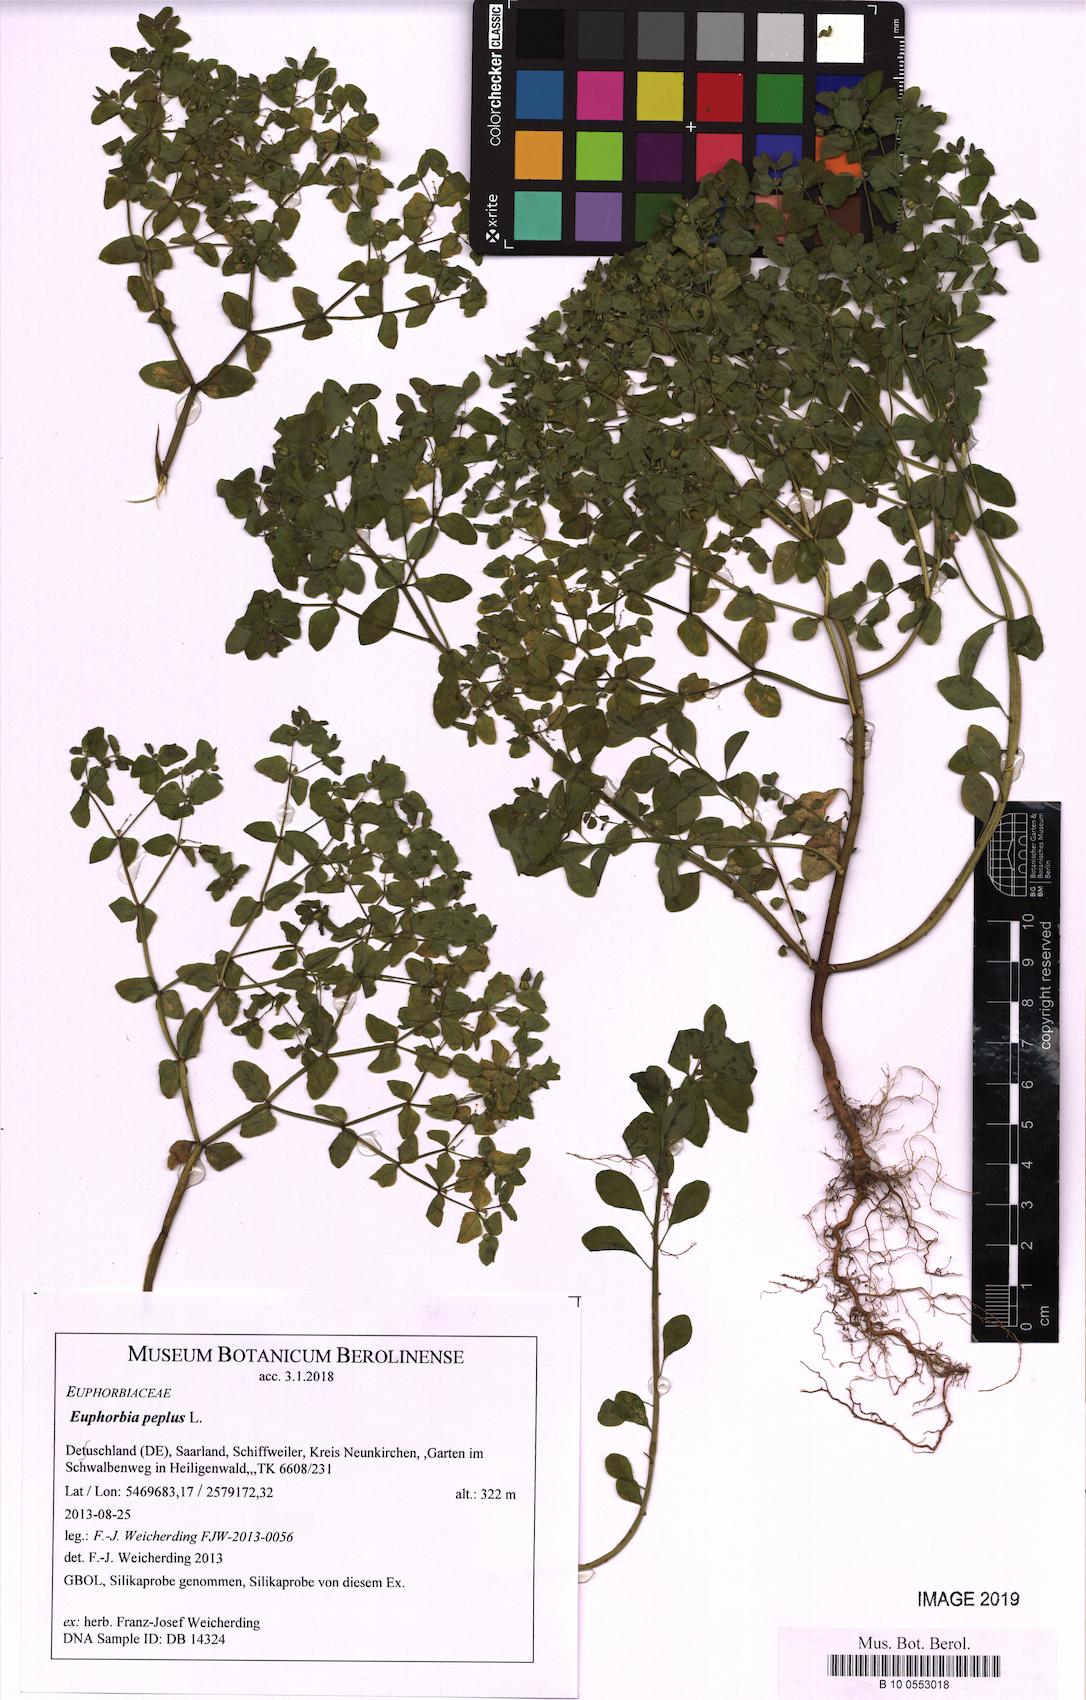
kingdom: Plantae
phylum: Tracheophyta
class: Magnoliopsida
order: Malpighiales
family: Euphorbiaceae
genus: Euphorbia
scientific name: Euphorbia peplus
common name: Petty spurge
